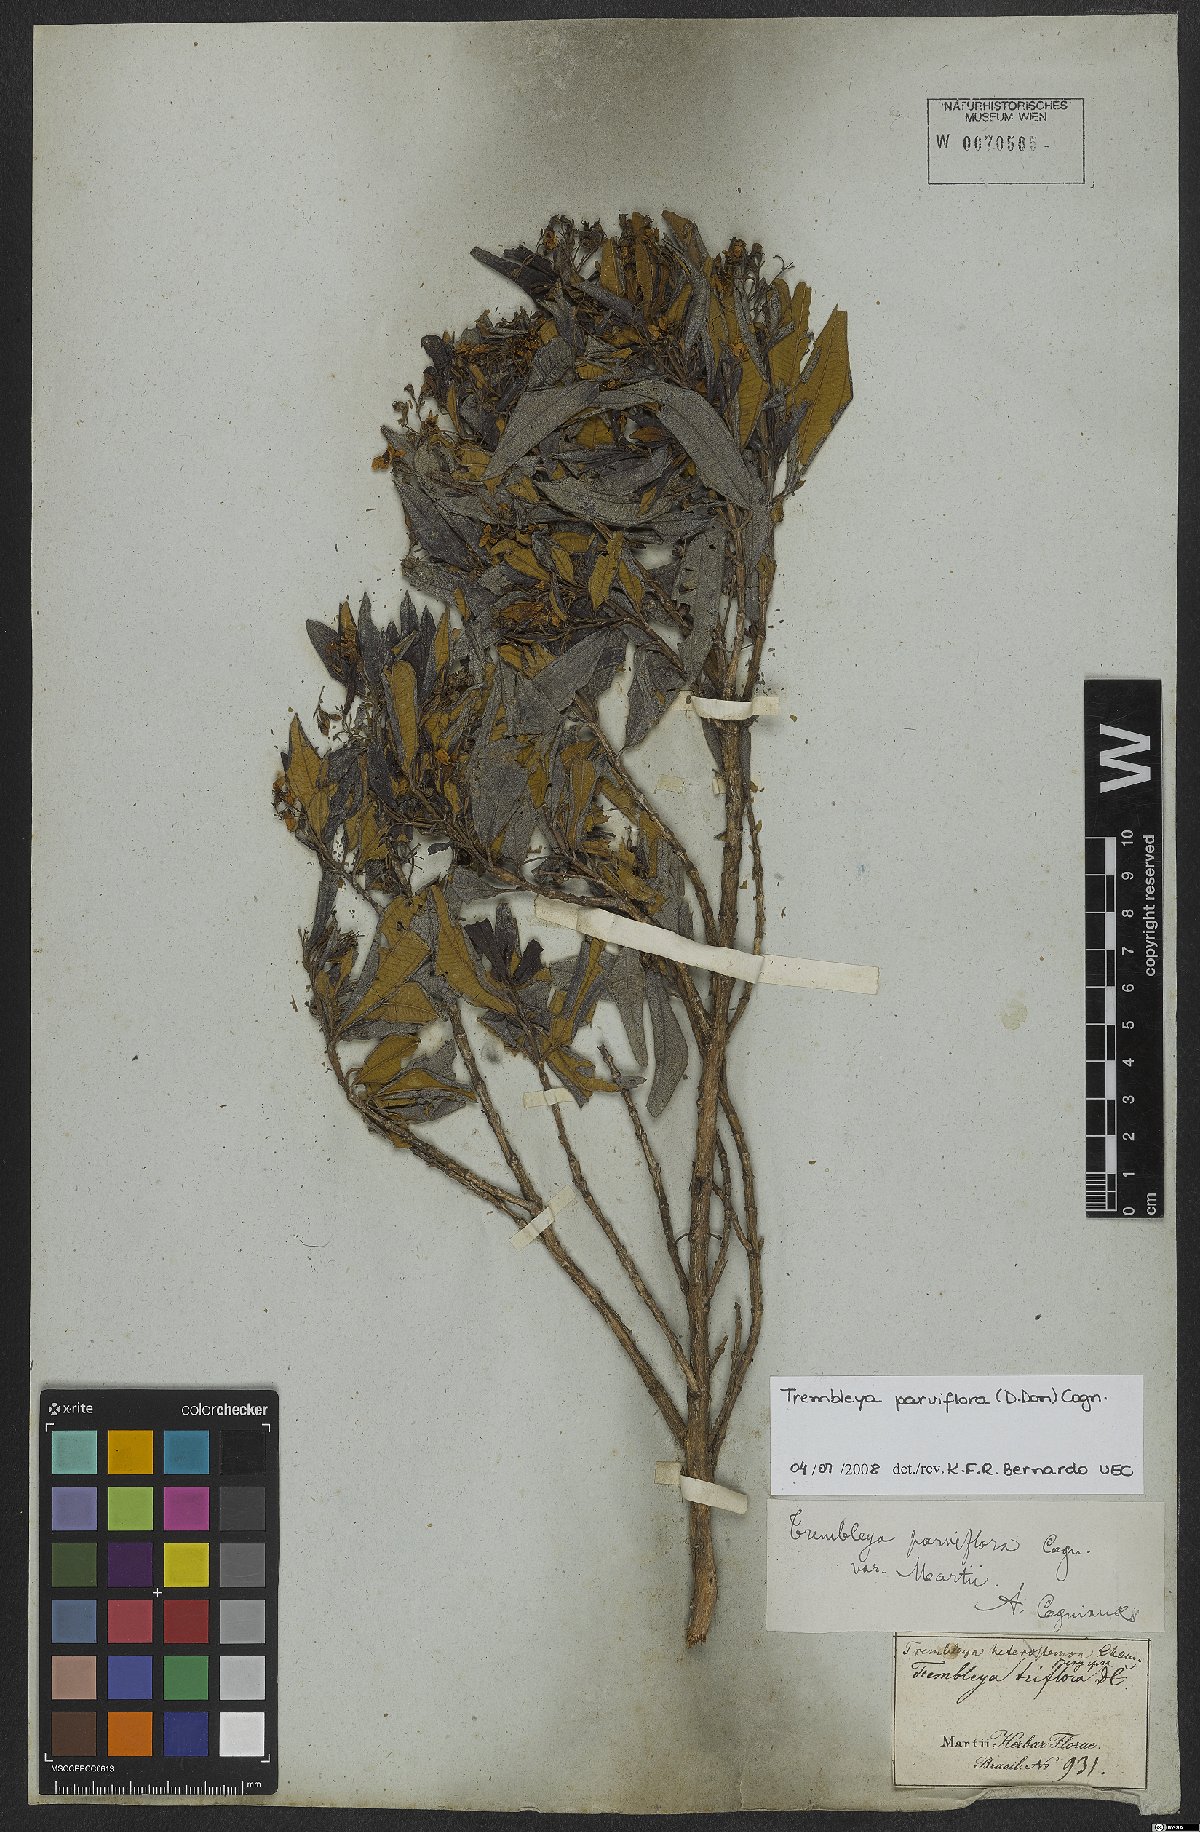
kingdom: Plantae
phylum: Tracheophyta
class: Magnoliopsida
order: Myrtales
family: Melastomataceae
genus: Microlicia
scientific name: Microlicia parviflora
